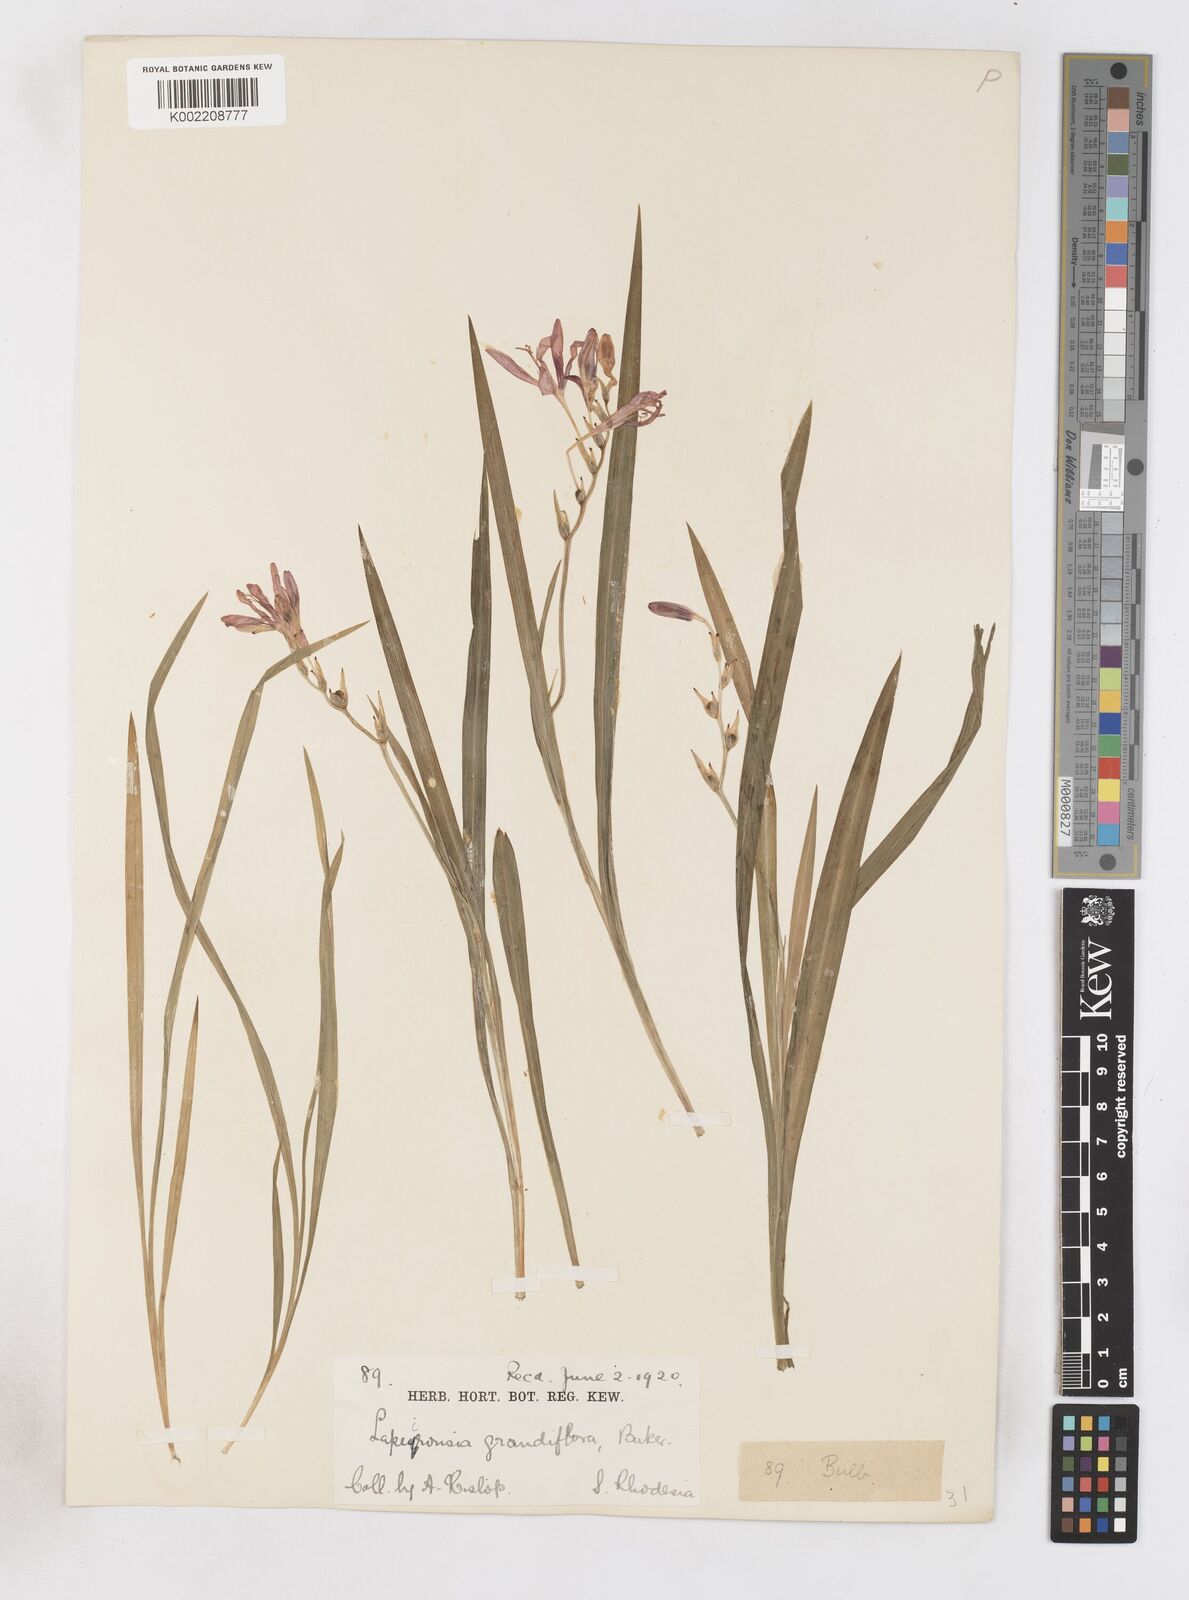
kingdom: Plantae
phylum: Tracheophyta
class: Liliopsida
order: Asparagales
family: Iridaceae
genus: Freesia
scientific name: Freesia grandiflora
